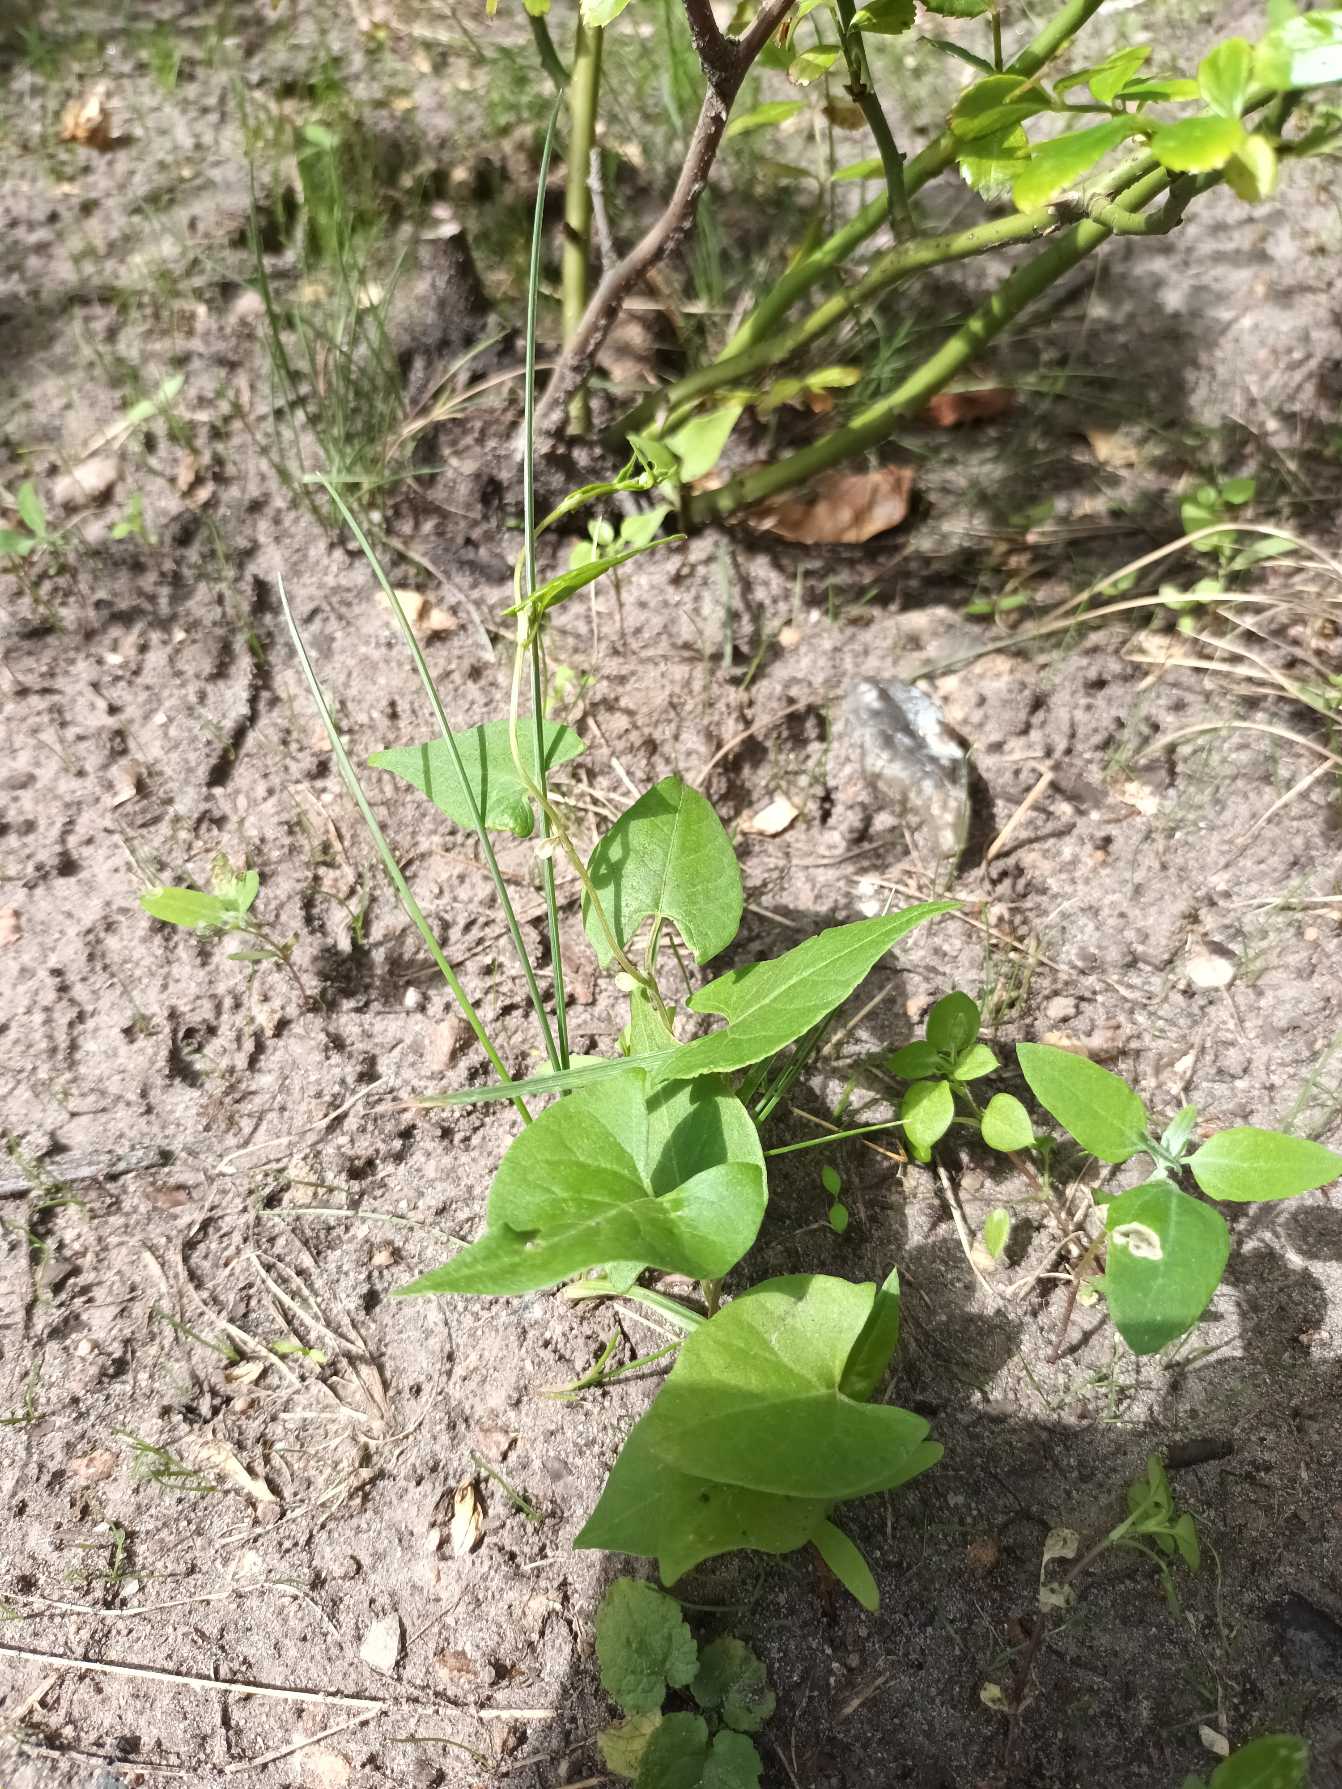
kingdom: Plantae
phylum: Tracheophyta
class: Magnoliopsida
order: Caryophyllales
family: Polygonaceae
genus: Fallopia
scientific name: Fallopia convolvulus
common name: Snerle-pileurt
